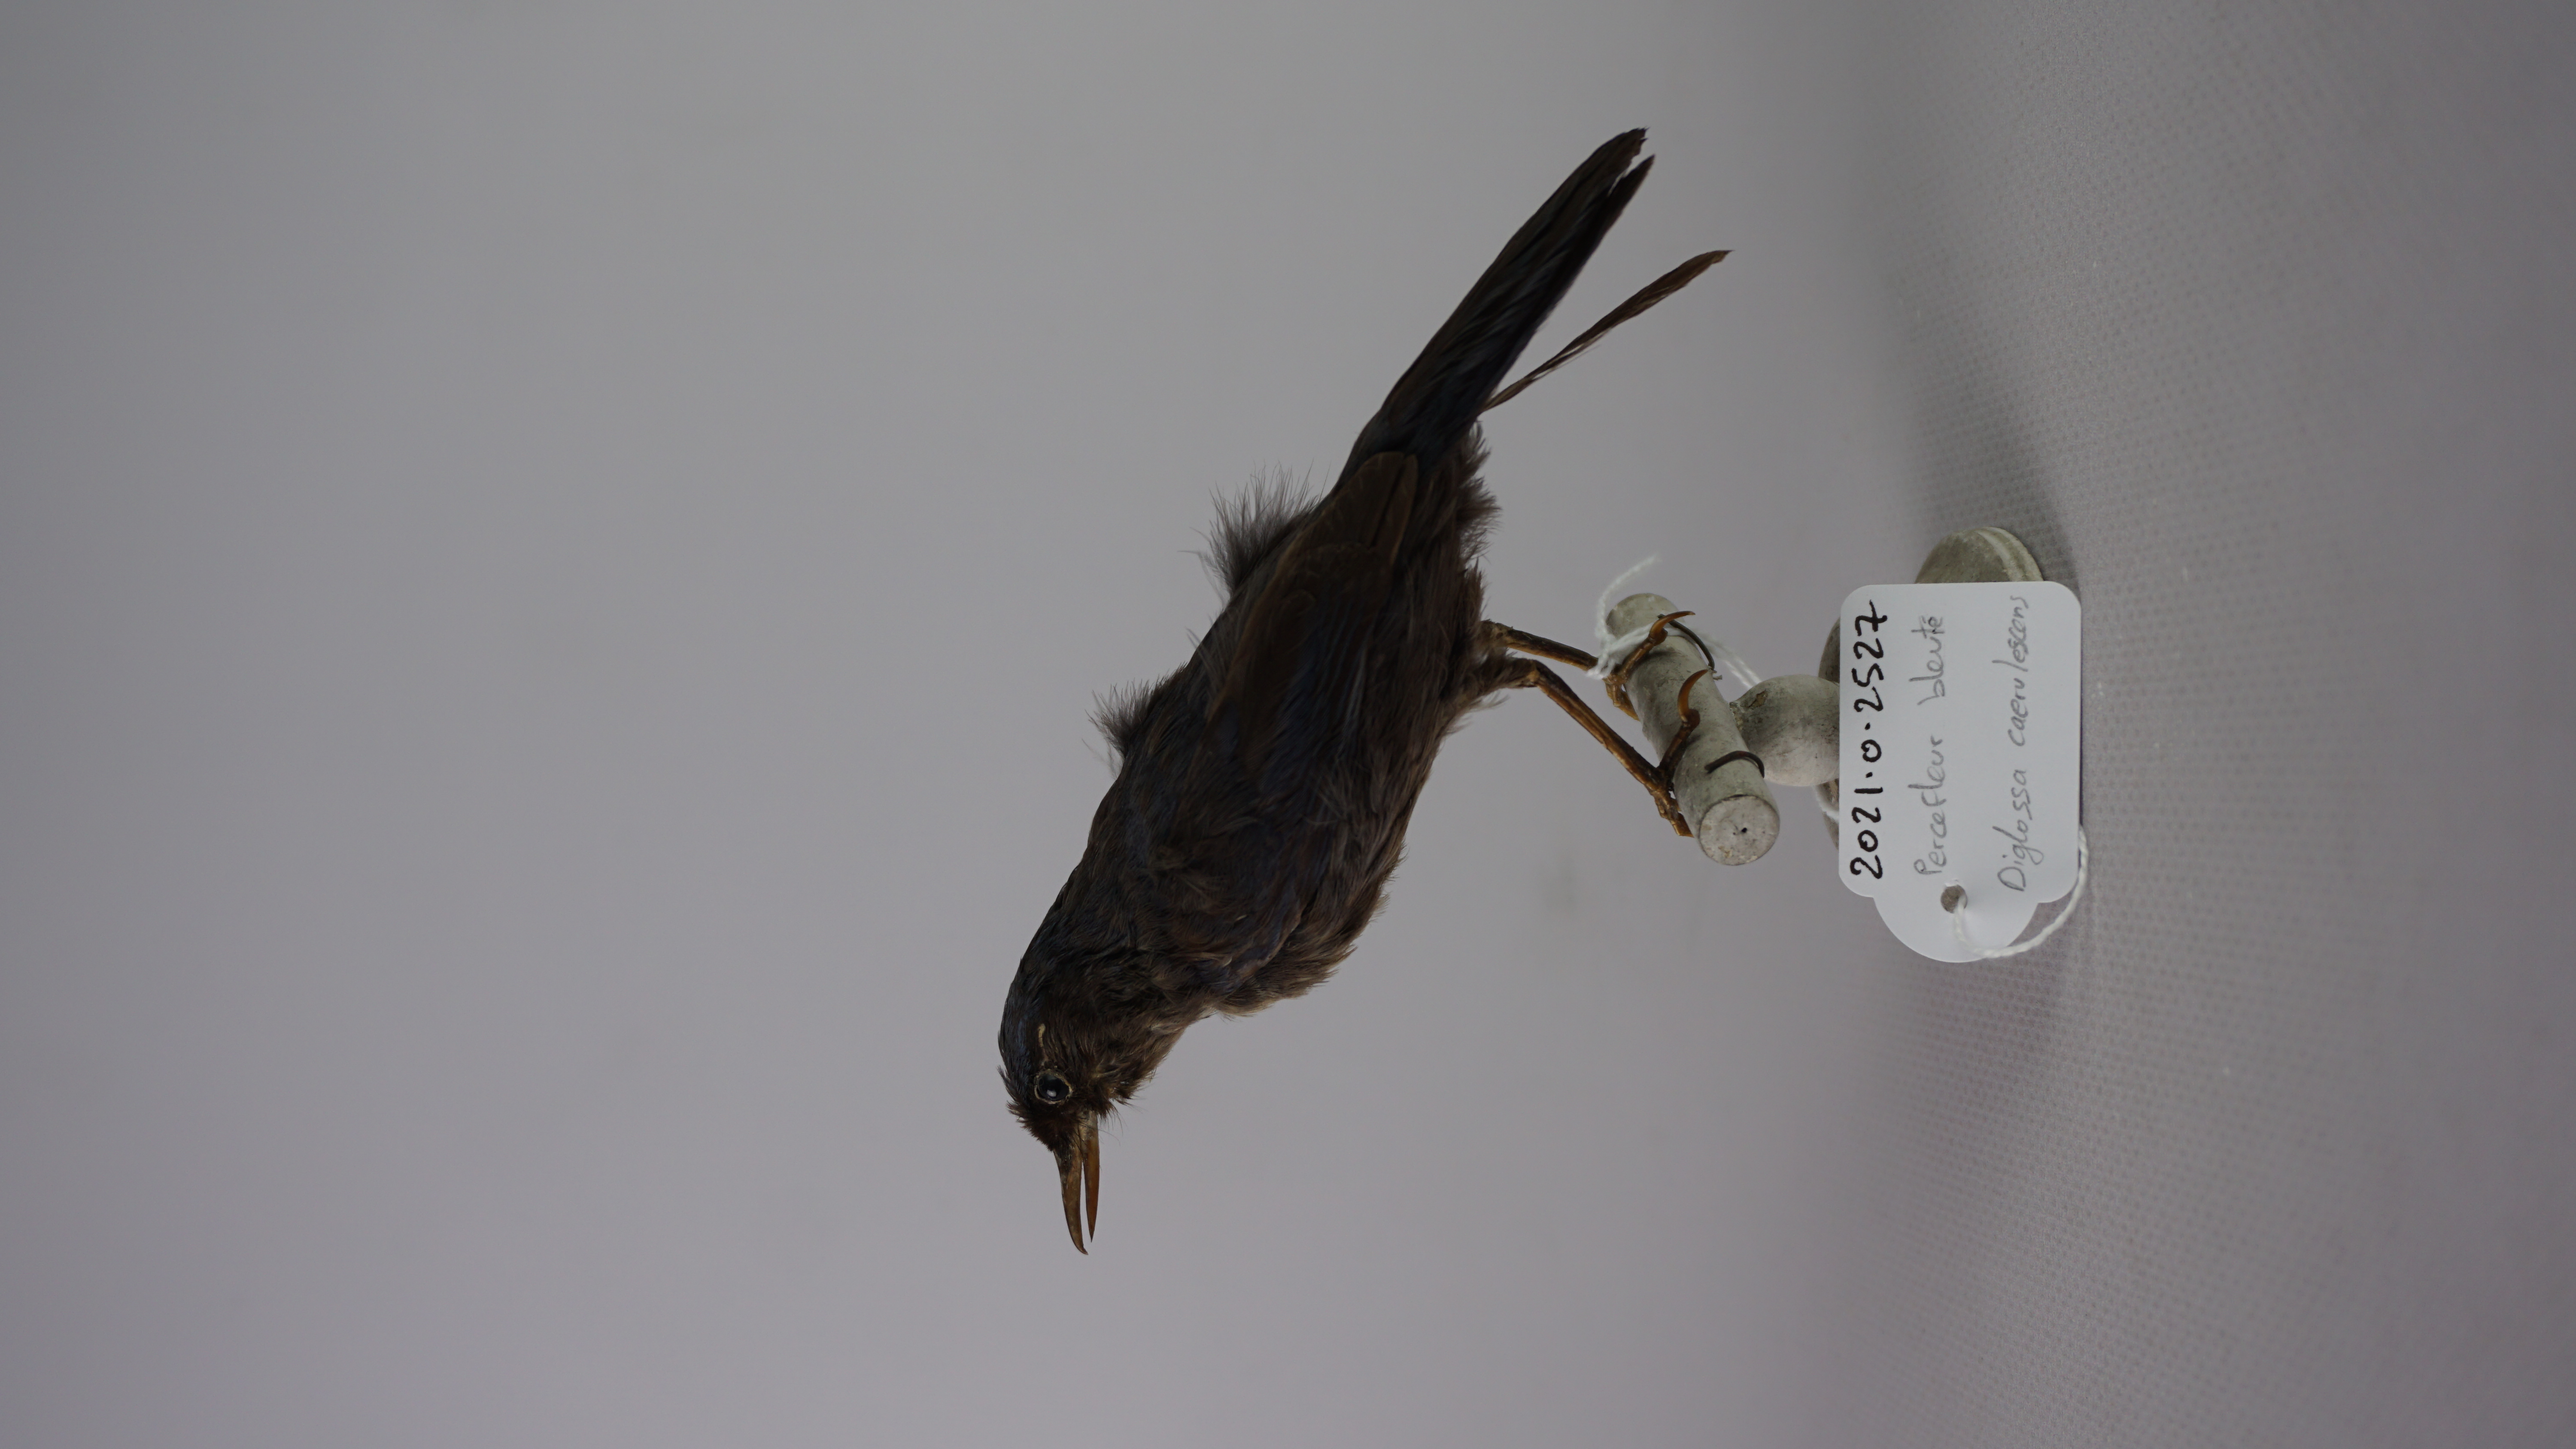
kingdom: Animalia
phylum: Chordata
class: Aves
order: Passeriformes
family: Thraupidae
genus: Diglossa
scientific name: Diglossa caerulescens
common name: Bluish flowerpiercer
